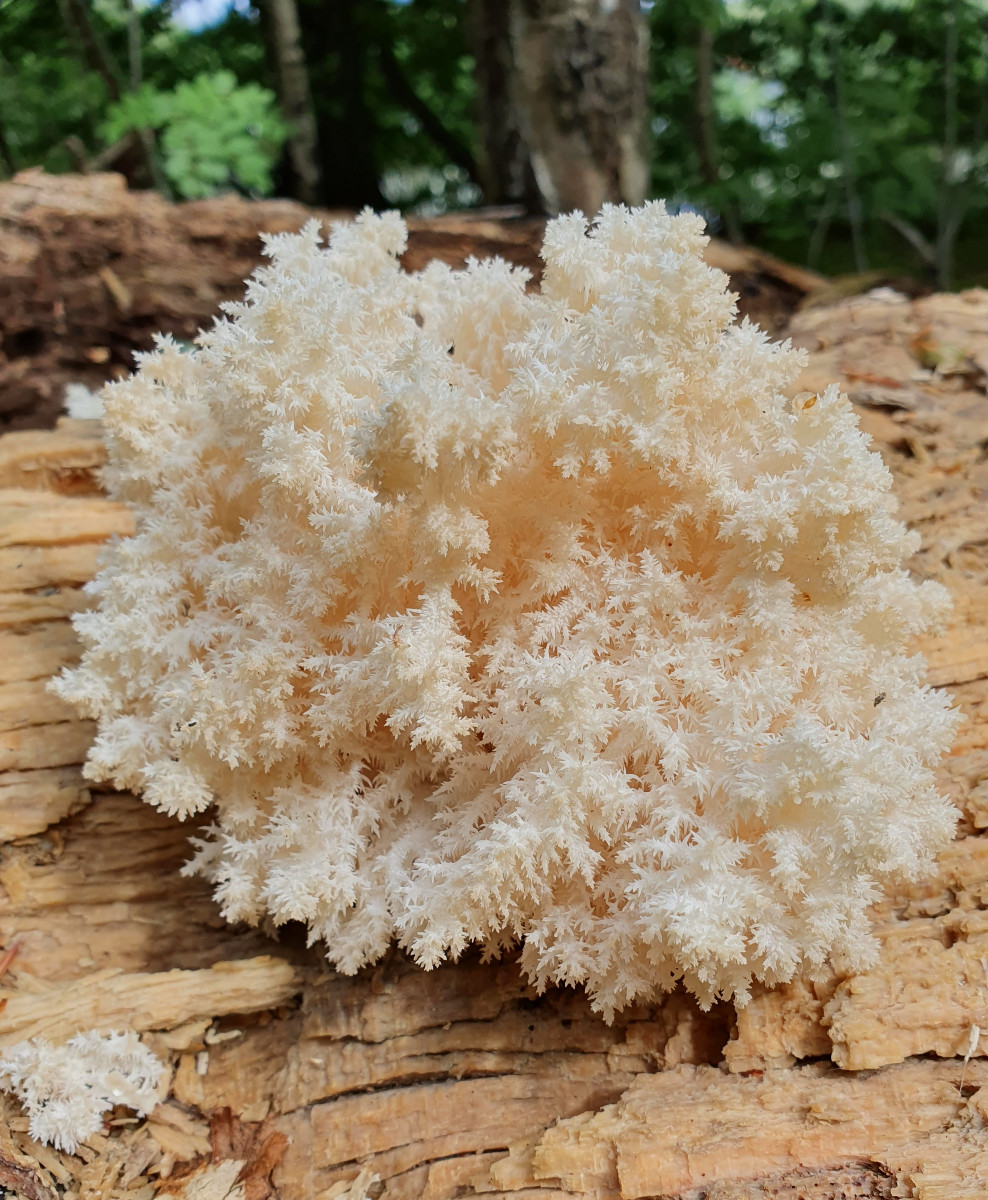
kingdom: Fungi
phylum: Basidiomycota
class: Agaricomycetes
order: Russulales
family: Hericiaceae
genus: Hericium
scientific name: Hericium coralloides
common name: koralpigsvamp
